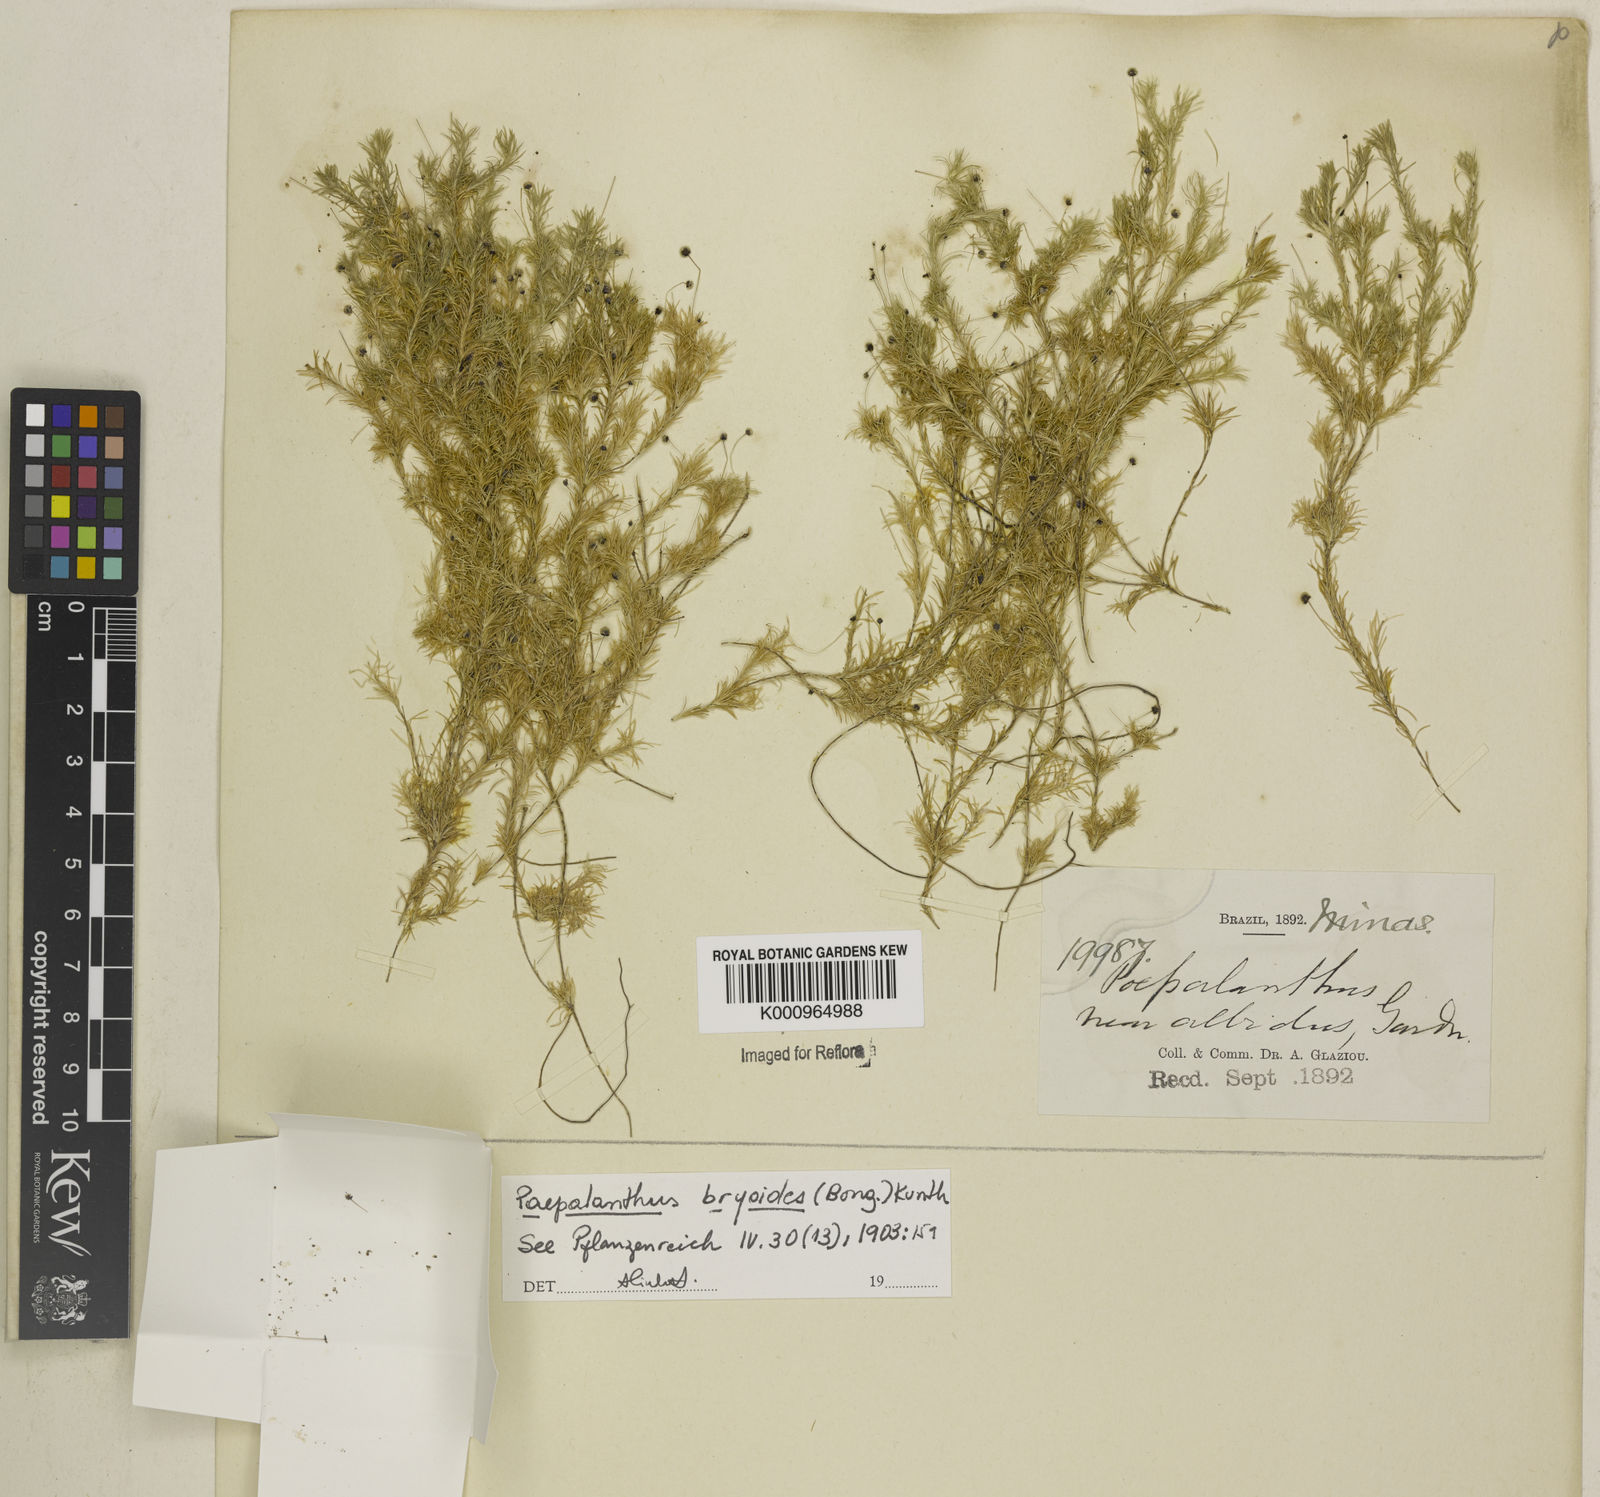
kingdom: Plantae
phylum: Tracheophyta
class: Liliopsida
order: Poales
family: Eriocaulaceae
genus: Paepalanthus
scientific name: Paepalanthus bryoides
